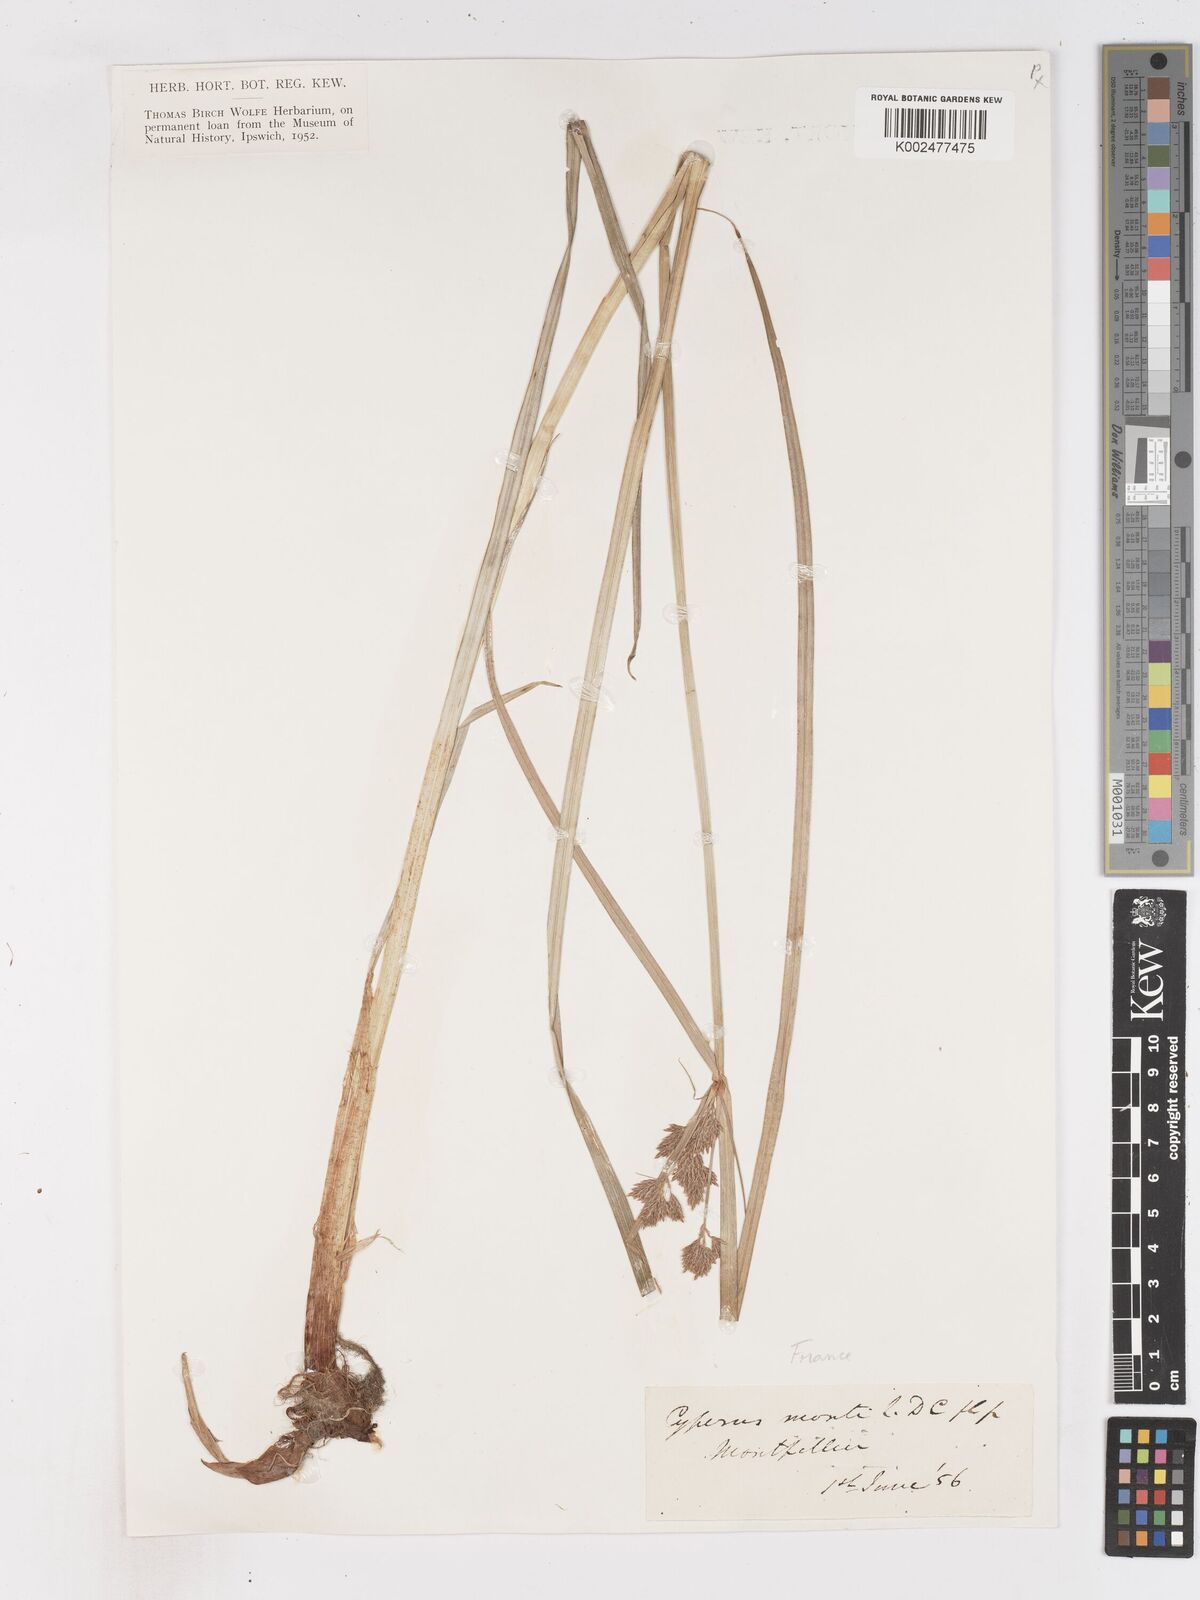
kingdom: Plantae
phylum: Tracheophyta
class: Liliopsida
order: Poales
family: Cyperaceae
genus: Cyperus
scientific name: Cyperus serotinus
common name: Tidalmarsh flatsedge
